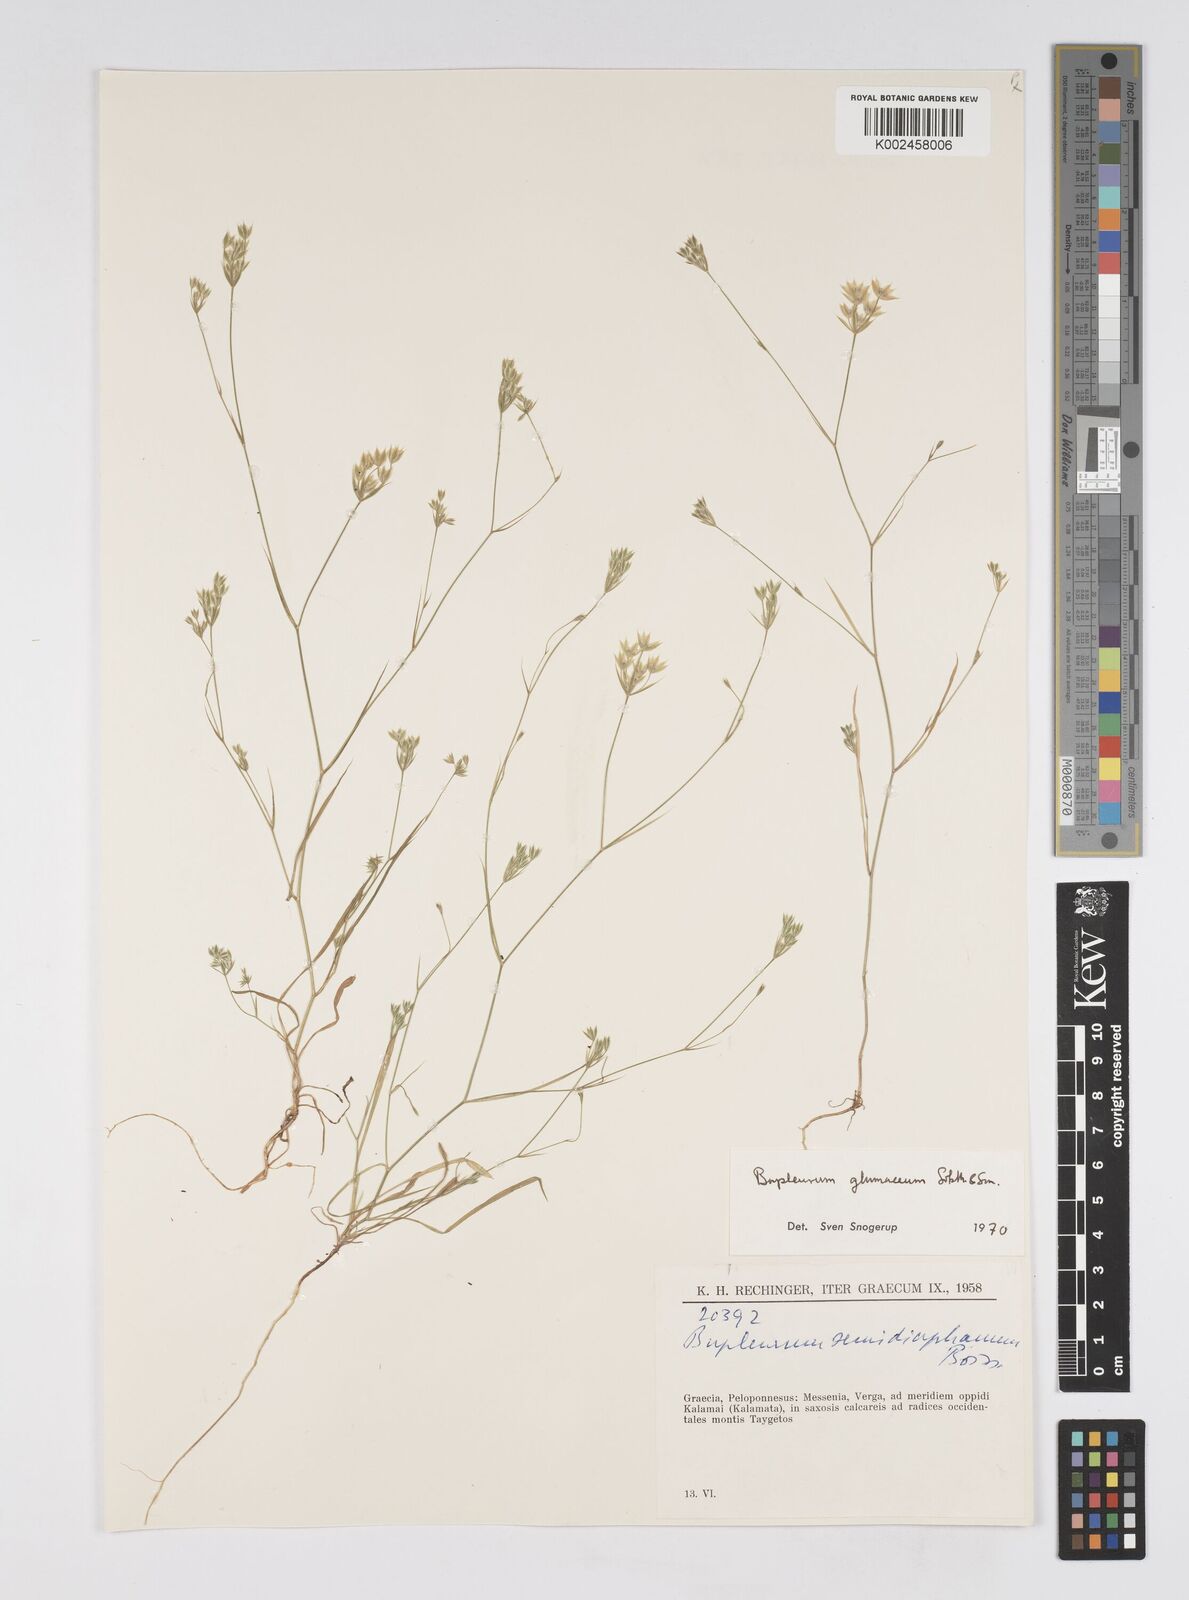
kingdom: Plantae
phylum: Tracheophyta
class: Magnoliopsida
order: Apiales
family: Apiaceae
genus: Bupleurum
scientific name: Bupleurum glumaceum
